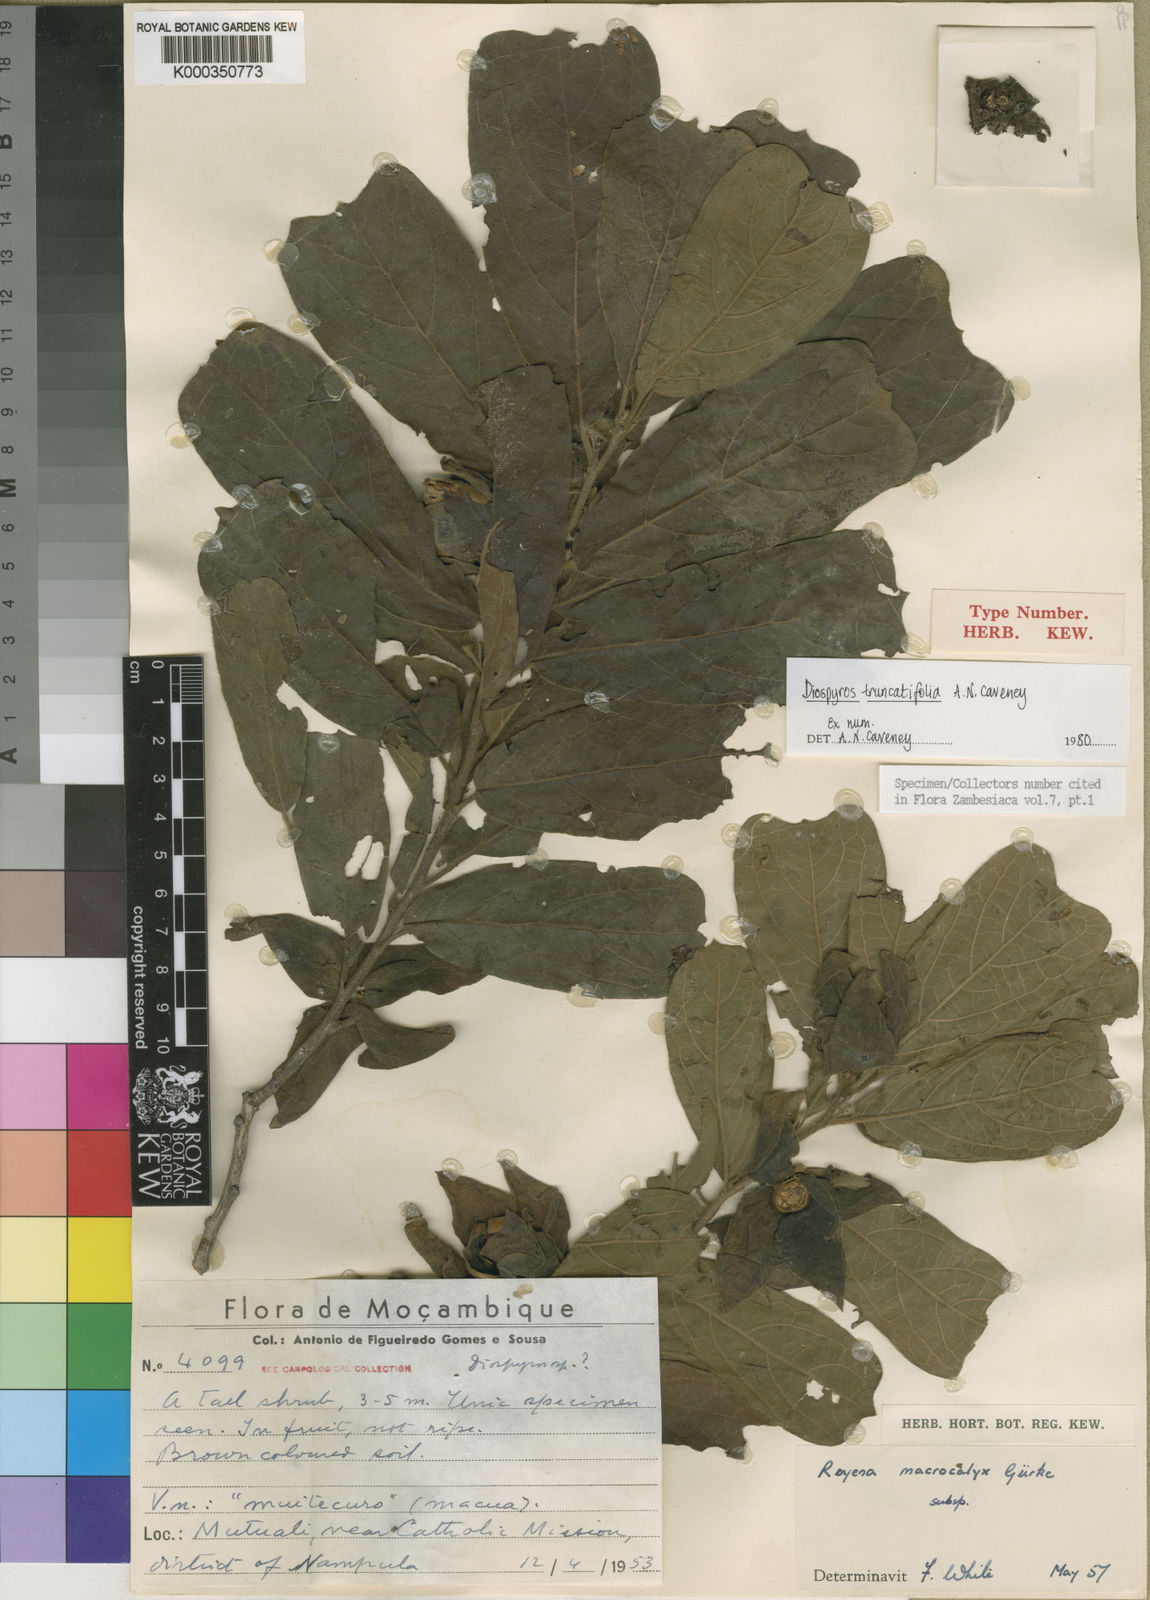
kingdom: Plantae
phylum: Tracheophyta
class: Magnoliopsida
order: Ericales
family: Ebenaceae
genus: Diospyros
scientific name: Diospyros truncatifolia
